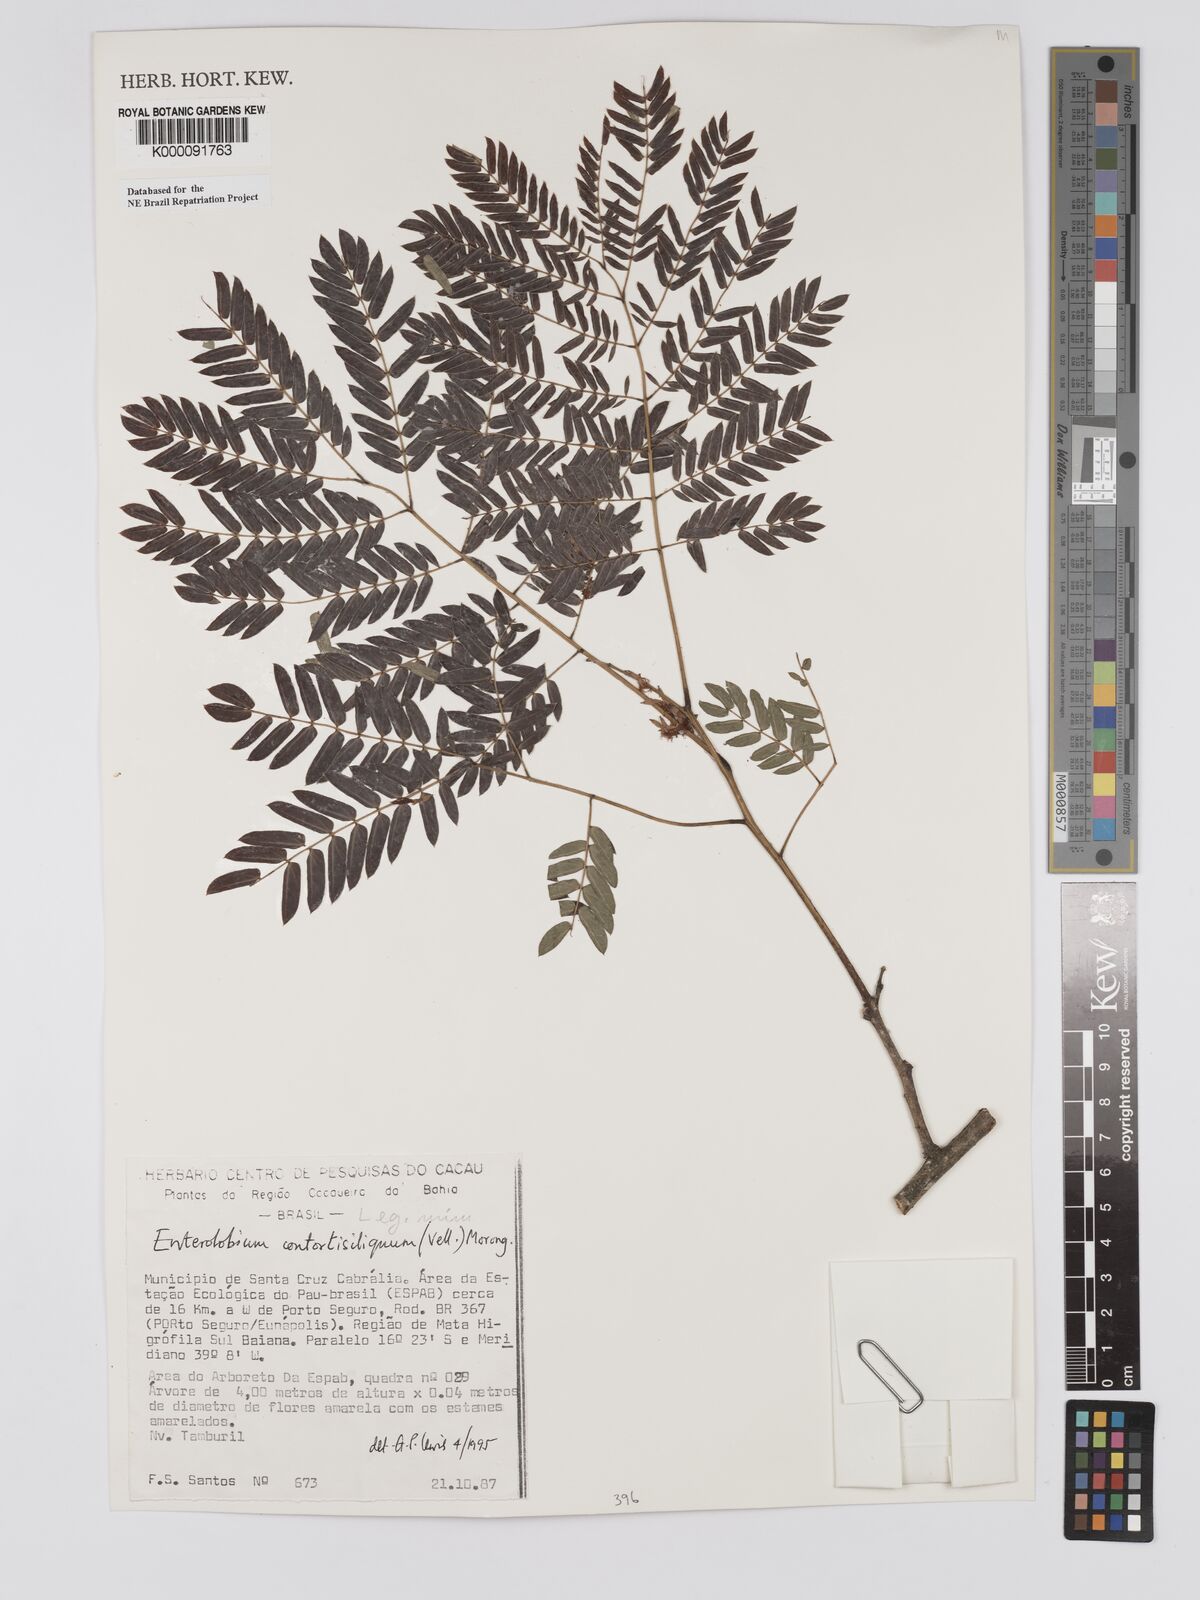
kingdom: Plantae
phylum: Tracheophyta
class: Magnoliopsida
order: Fabales
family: Fabaceae
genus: Enterolobium
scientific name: Enterolobium contortisiliquum
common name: Pacara earpod tree
